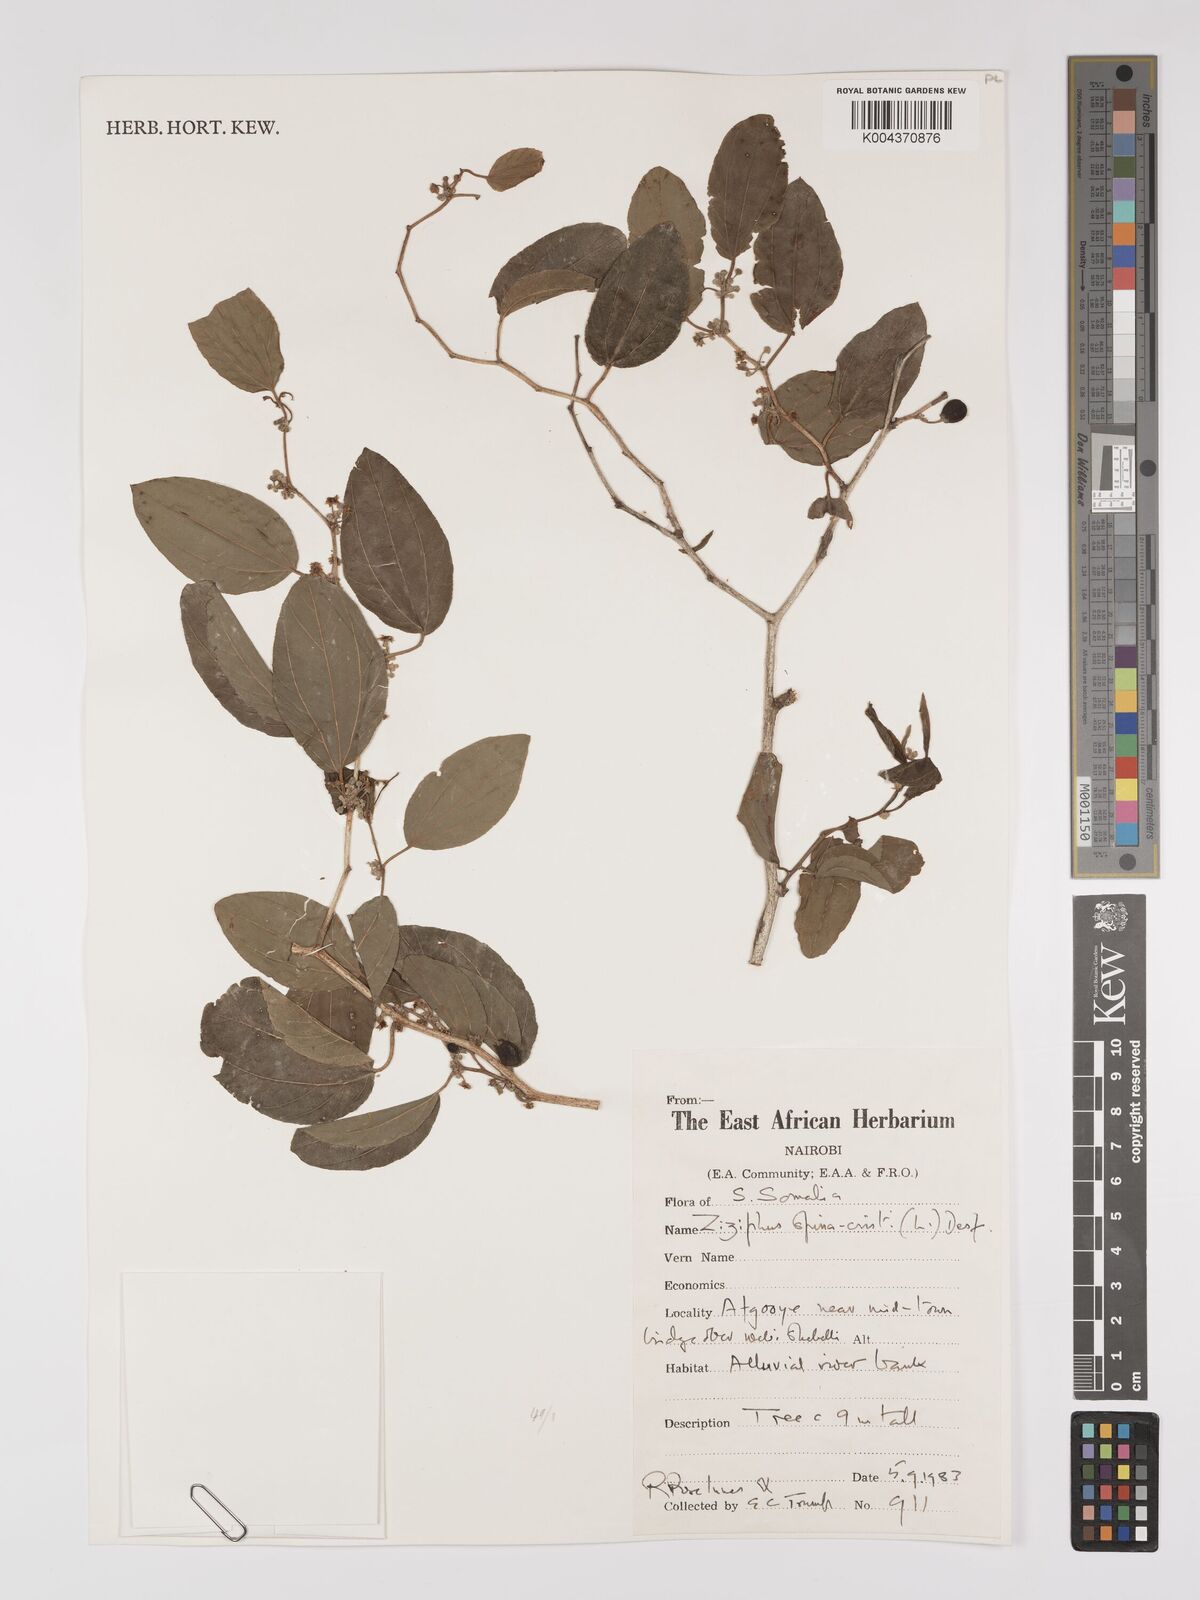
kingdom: Plantae
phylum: Tracheophyta
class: Magnoliopsida
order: Rosales
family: Rhamnaceae
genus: Ziziphus
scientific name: Ziziphus spina-christi
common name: Syrian christ-thorn
